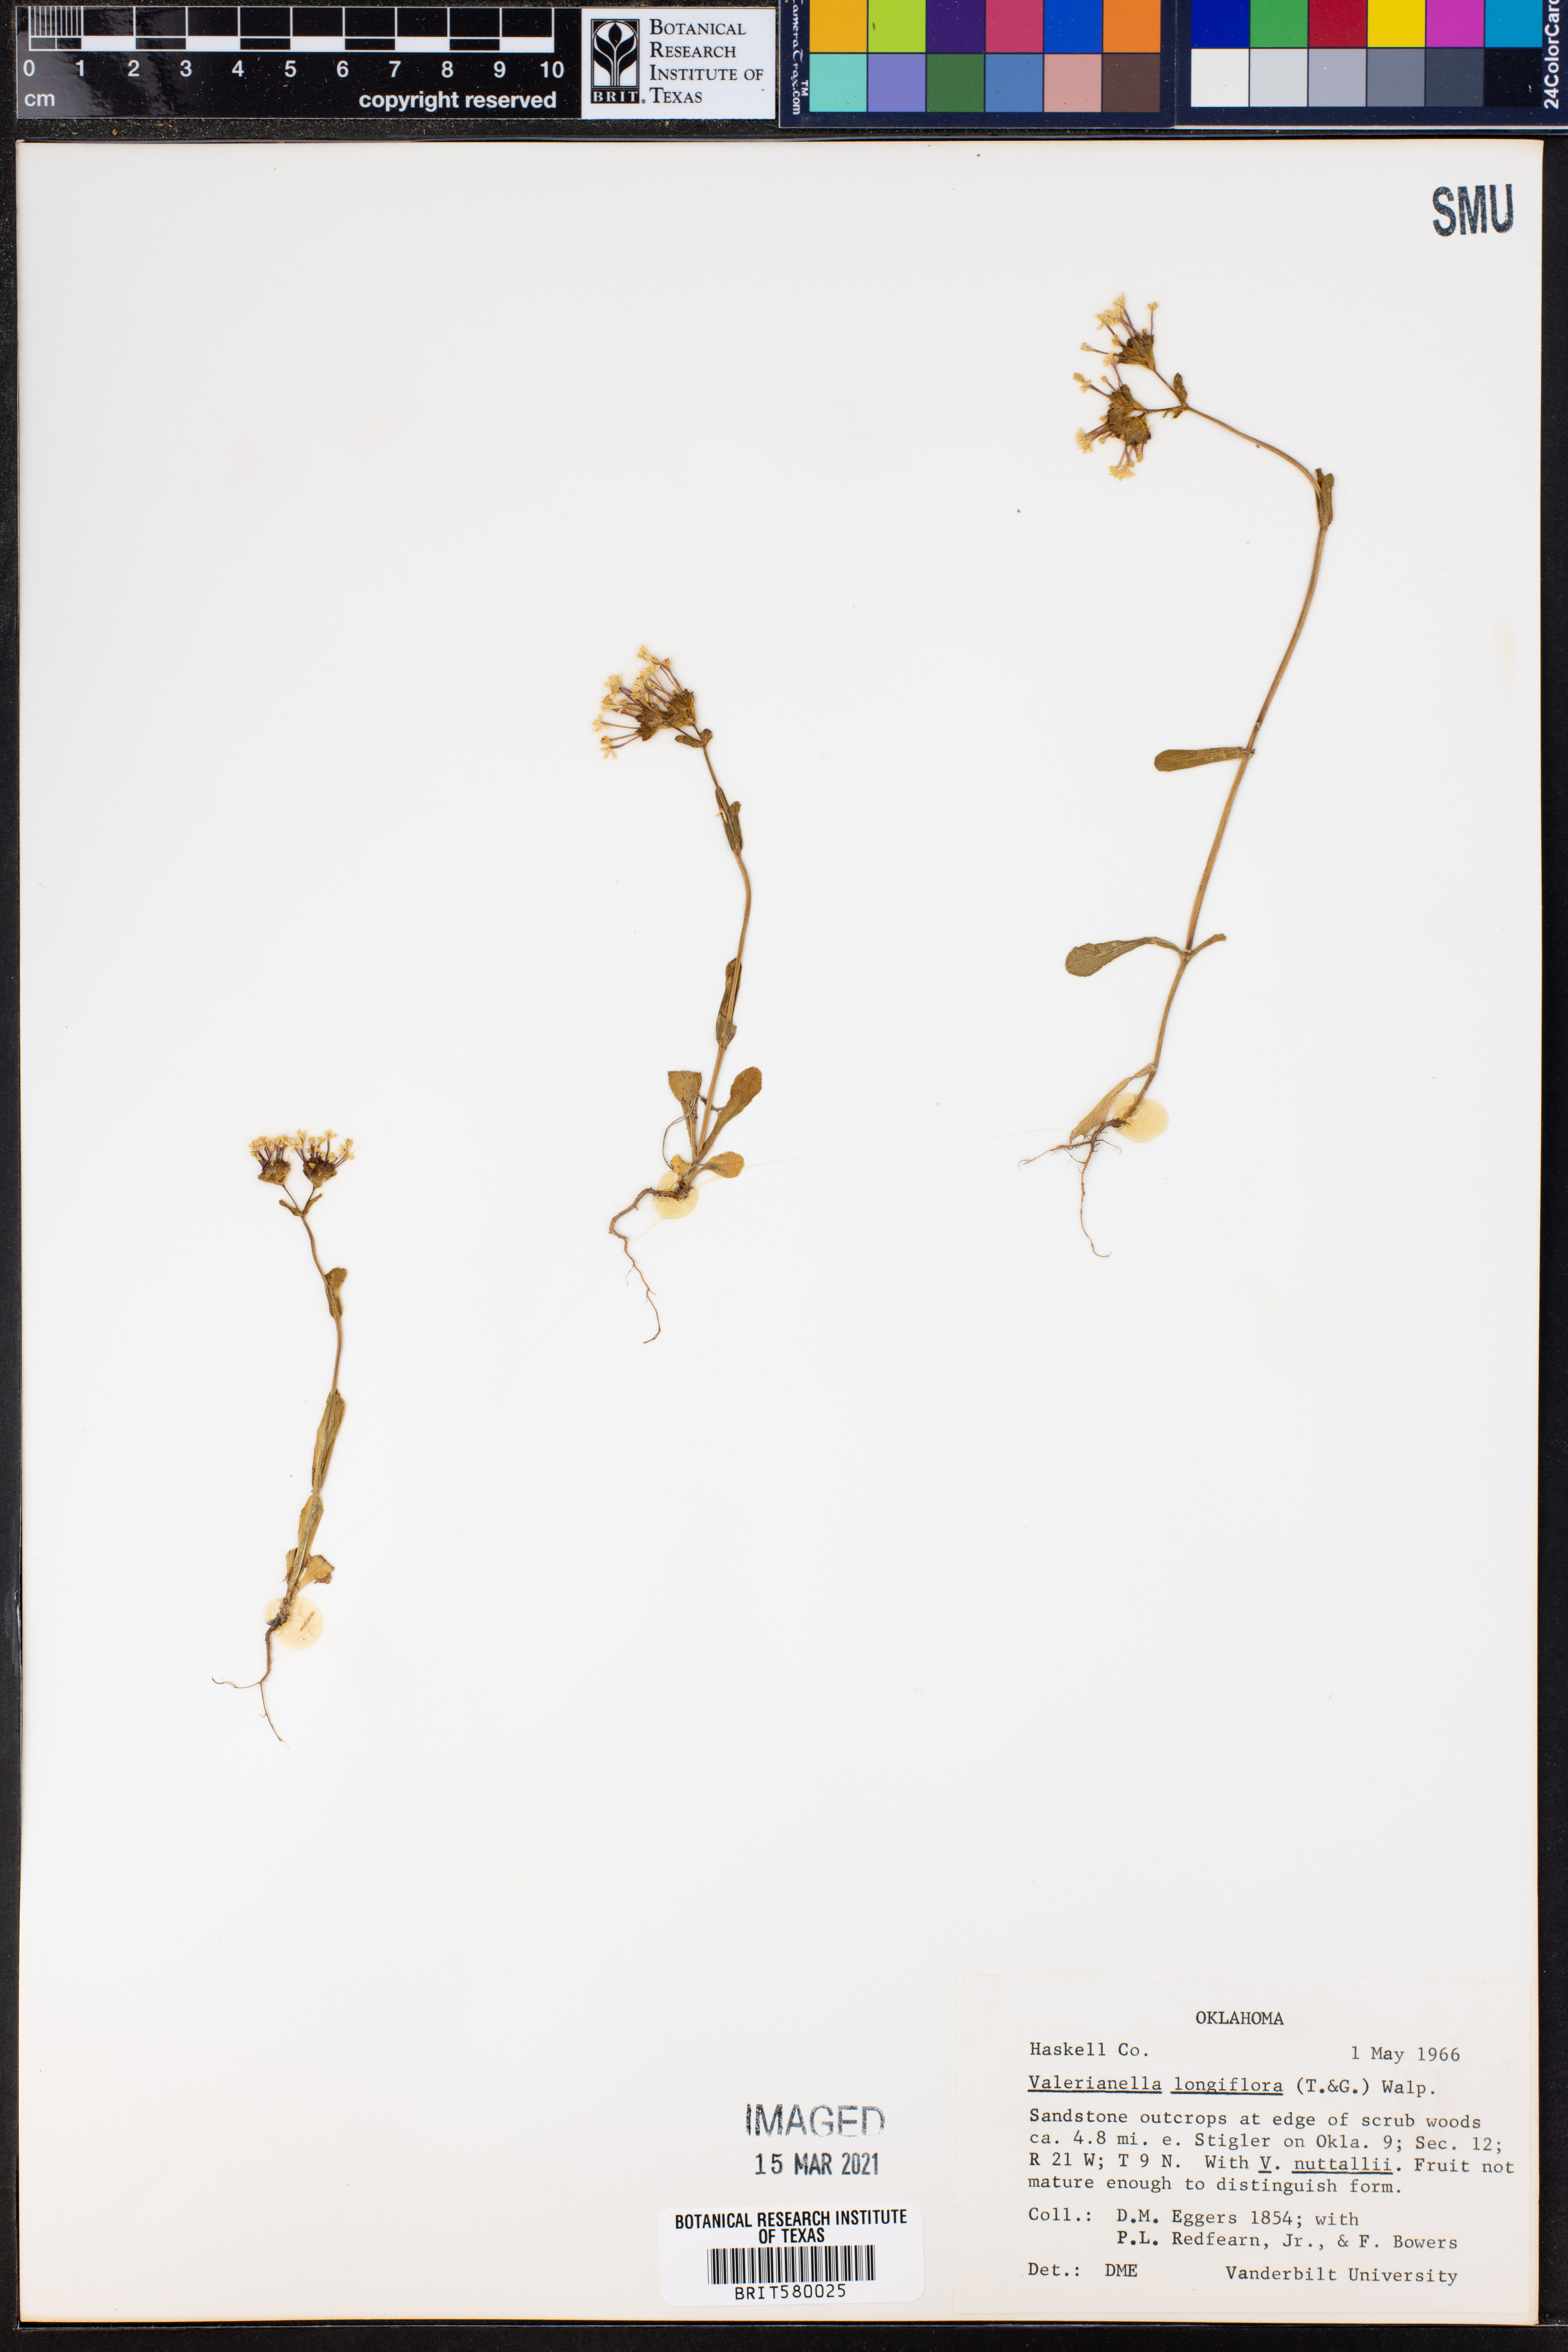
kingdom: Plantae
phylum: Tracheophyta
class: Magnoliopsida
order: Dipsacales
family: Caprifoliaceae
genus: Plectritis
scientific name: Plectritis longiflora
